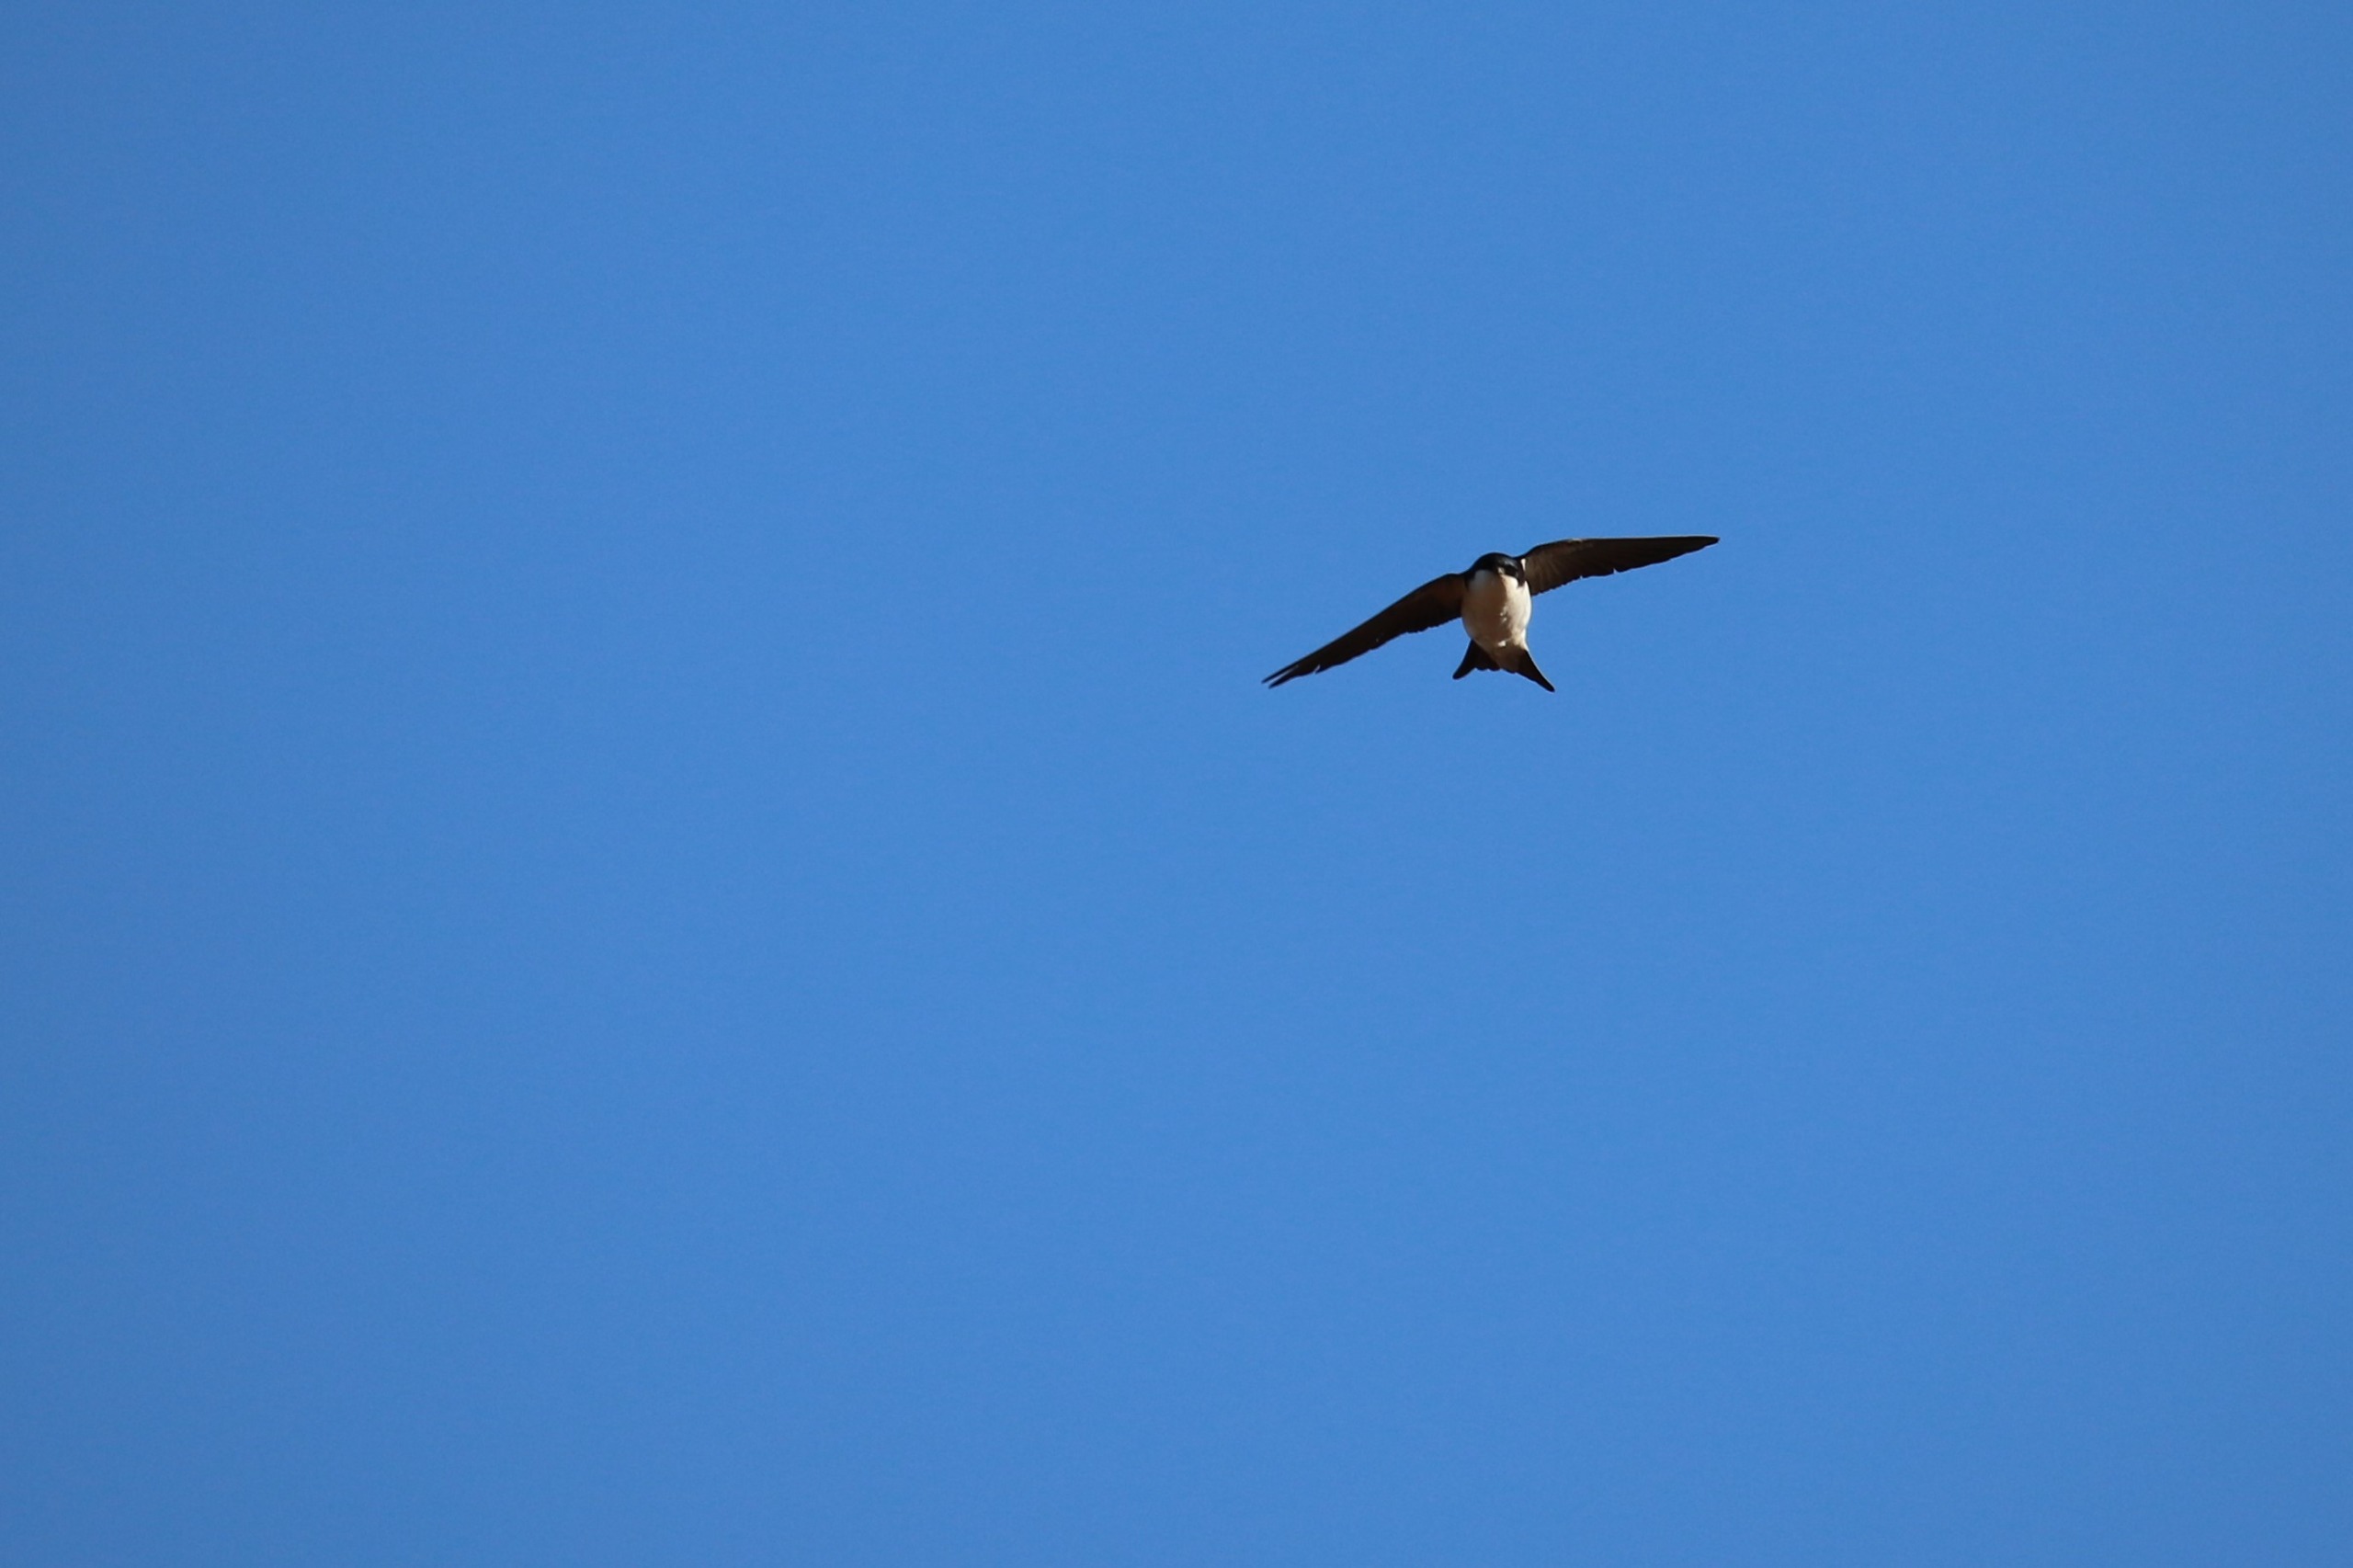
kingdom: Animalia
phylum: Chordata
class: Aves
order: Passeriformes
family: Hirundinidae
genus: Delichon
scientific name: Delichon urbicum
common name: Bysvale
